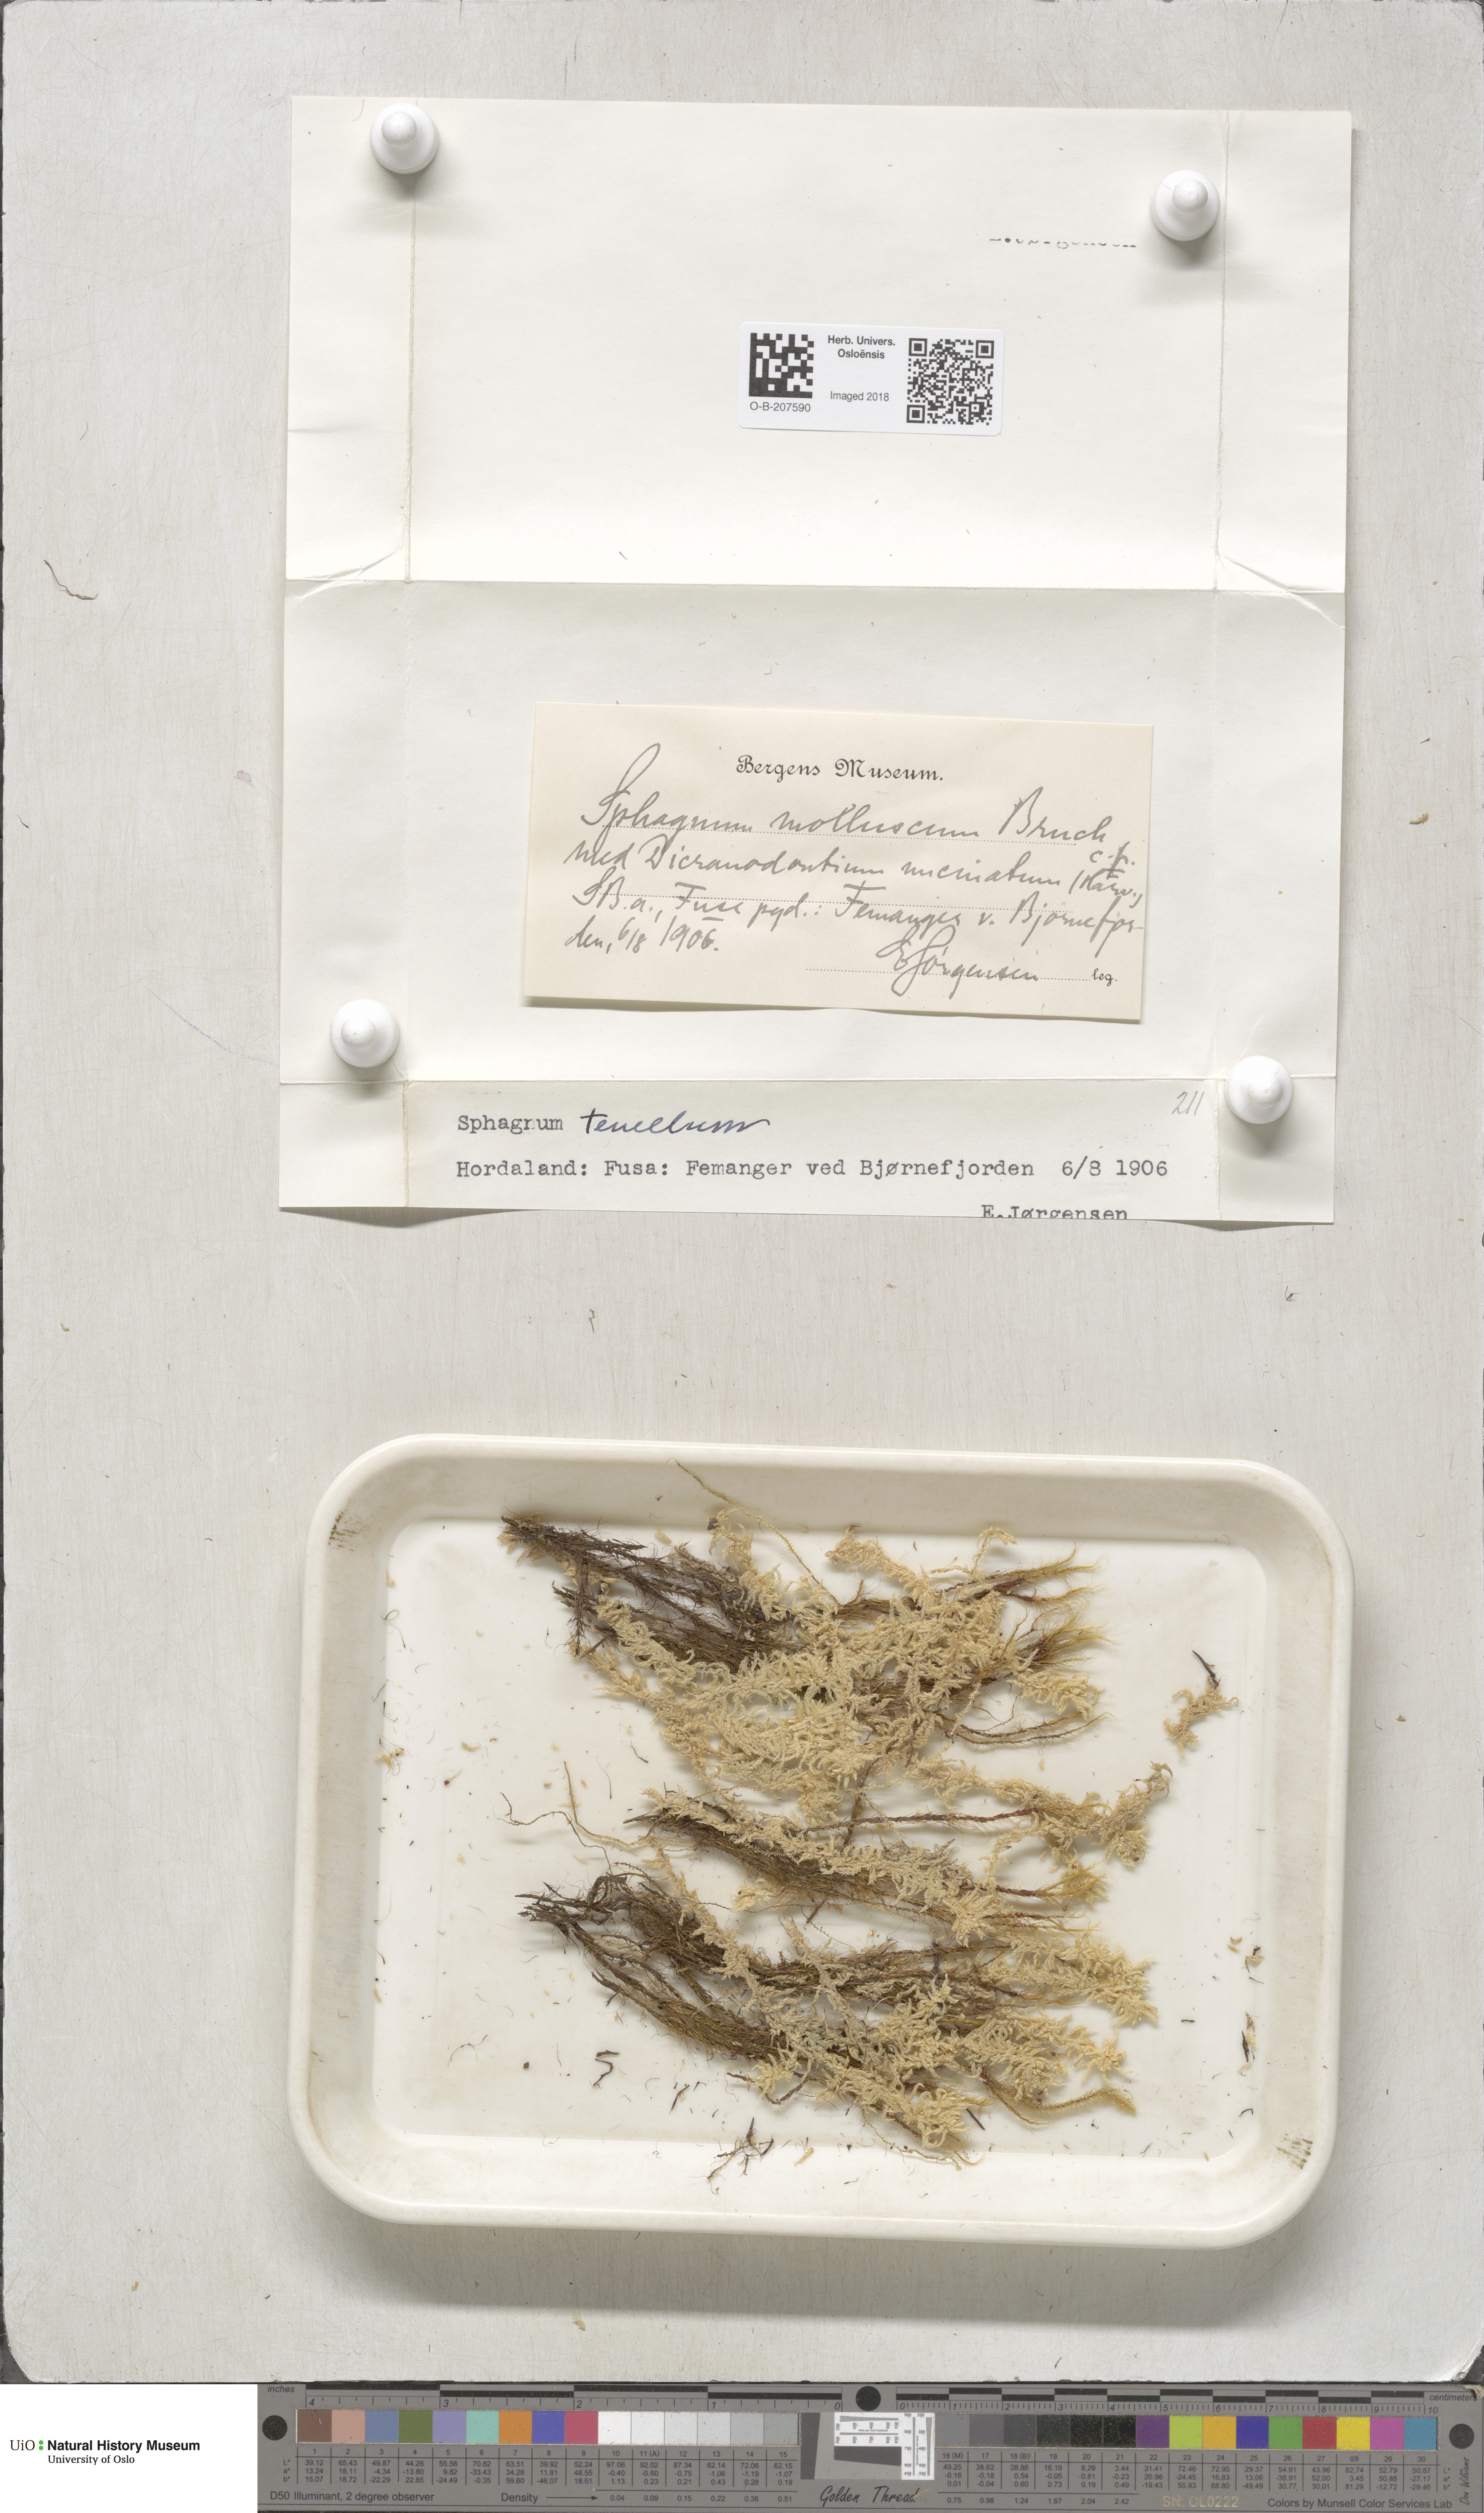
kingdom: Plantae
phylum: Bryophyta
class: Sphagnopsida
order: Sphagnales
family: Sphagnaceae
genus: Sphagnum
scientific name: Sphagnum tenellum
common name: Soft bog-moss
